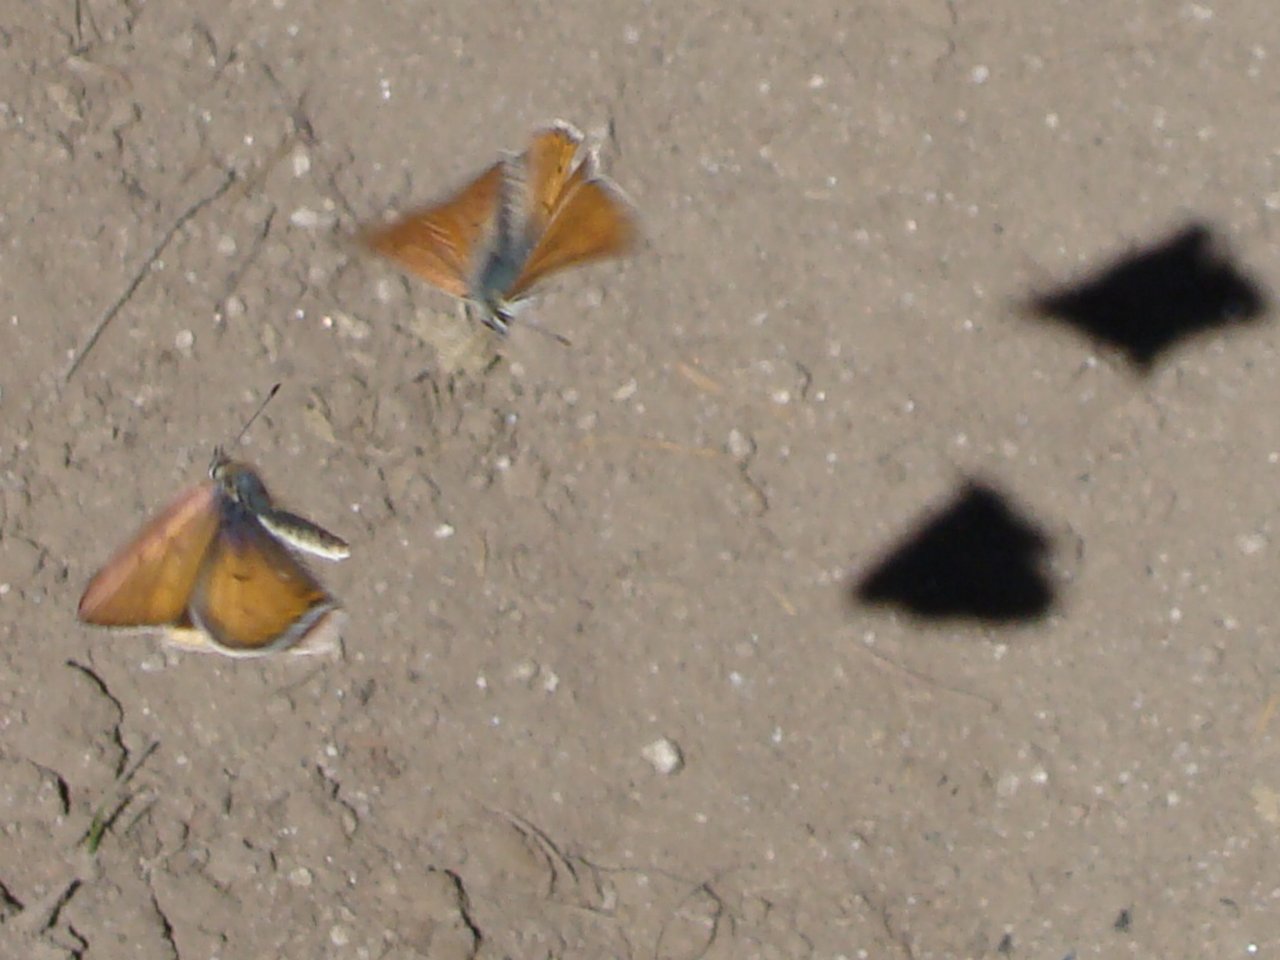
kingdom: Animalia
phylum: Arthropoda
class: Insecta
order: Lepidoptera
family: Nymphalidae
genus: Coenonympha
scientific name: Coenonympha tullia
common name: Large Heath
